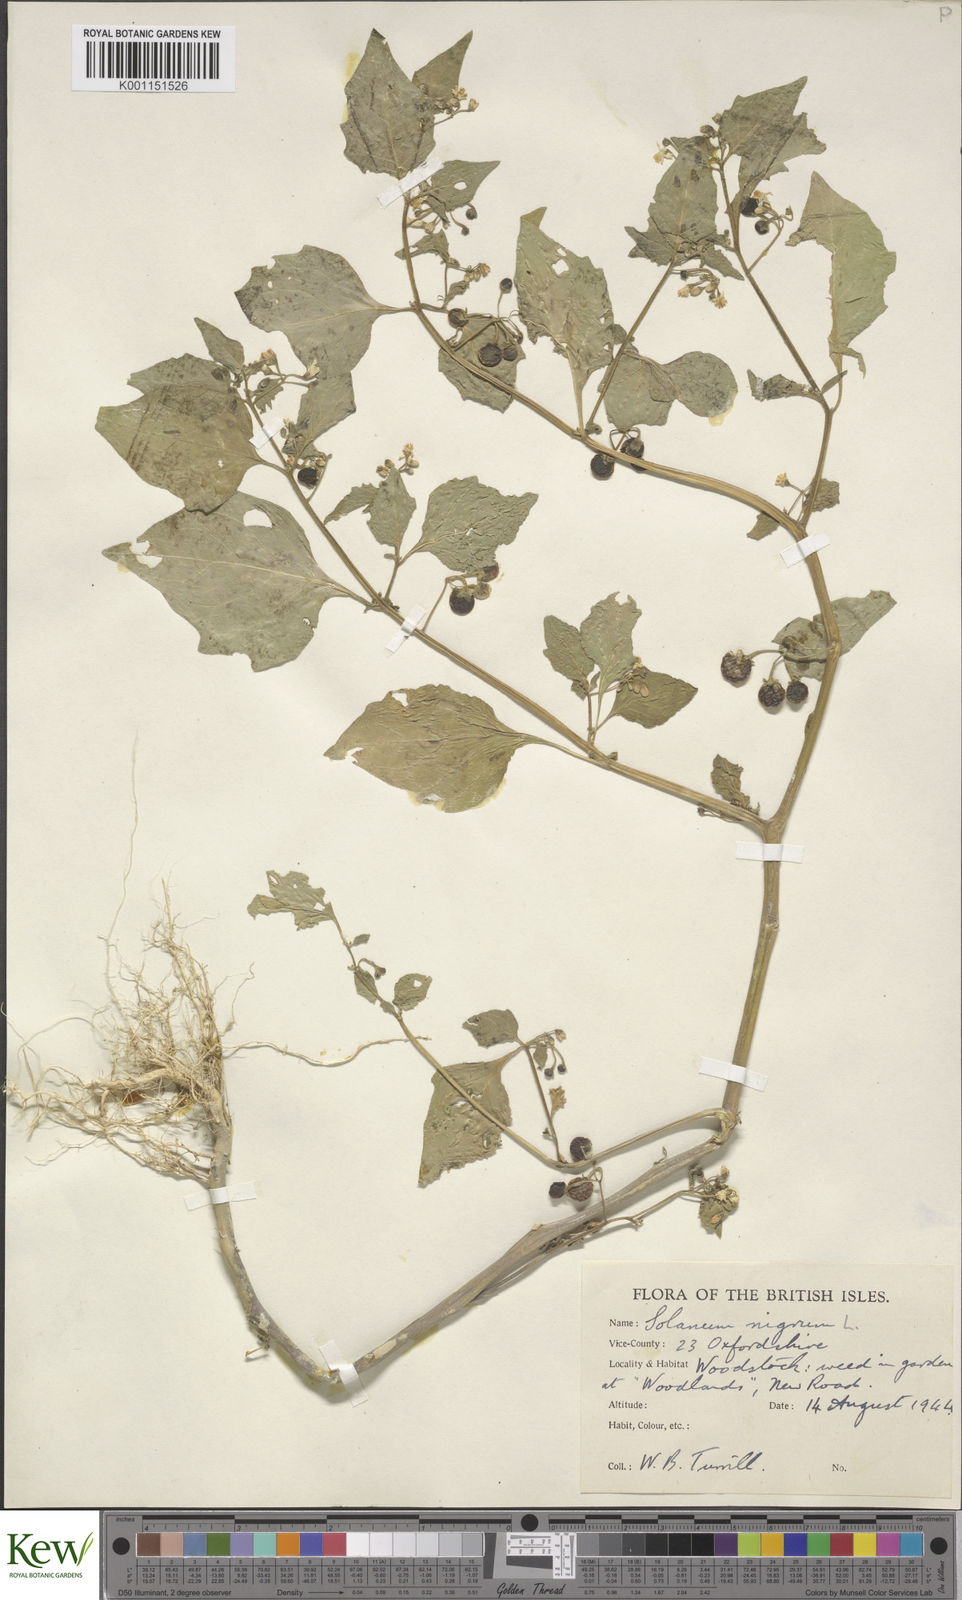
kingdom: Plantae
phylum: Tracheophyta
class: Magnoliopsida
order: Solanales
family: Solanaceae
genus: Solanum
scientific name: Solanum nigrum
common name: Black nightshade
